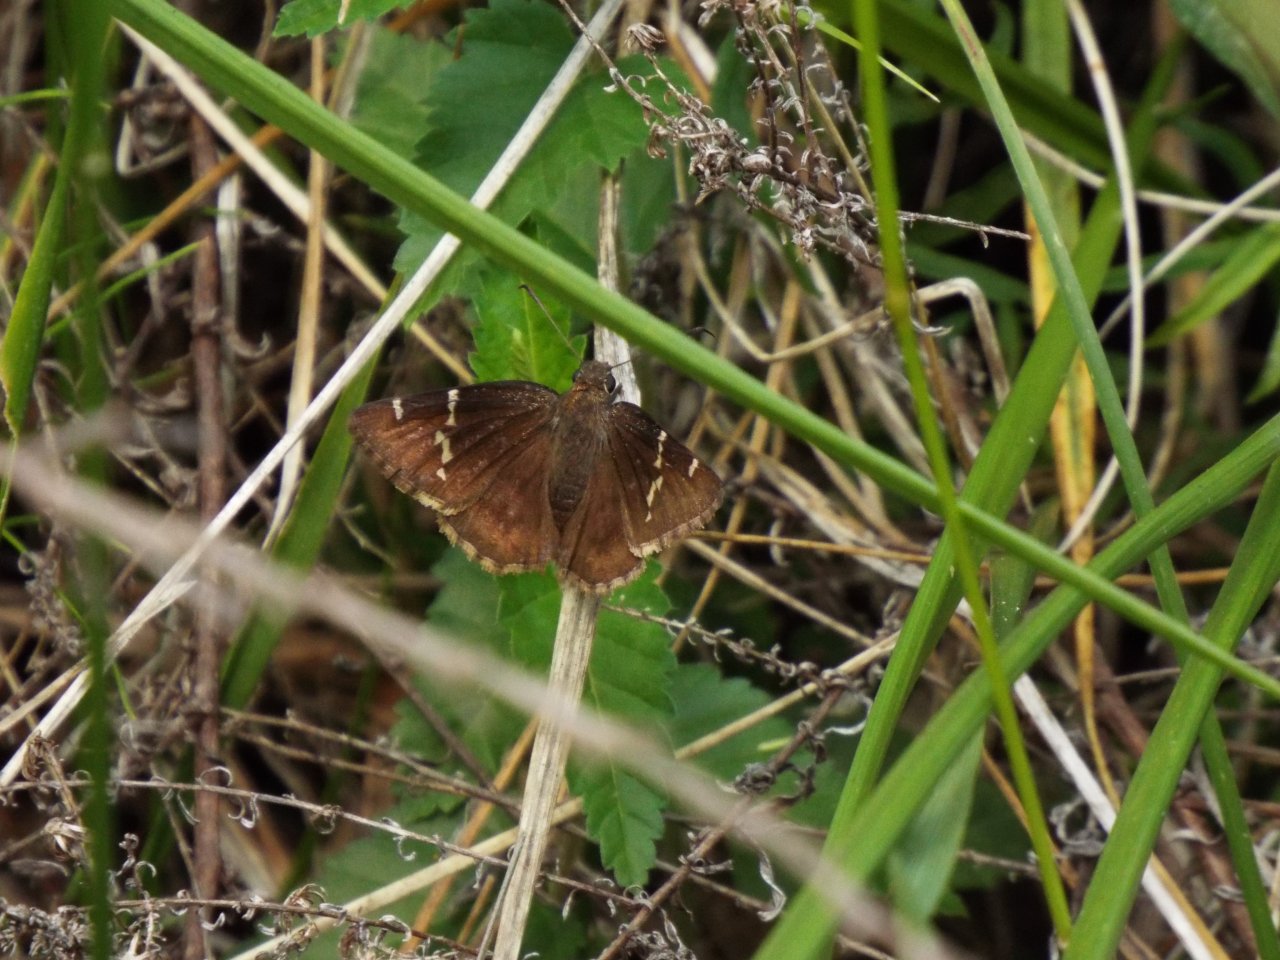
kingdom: Animalia
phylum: Arthropoda
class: Insecta
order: Lepidoptera
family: Hesperiidae
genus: Autochton
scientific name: Autochton
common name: Southern Cloudywing
